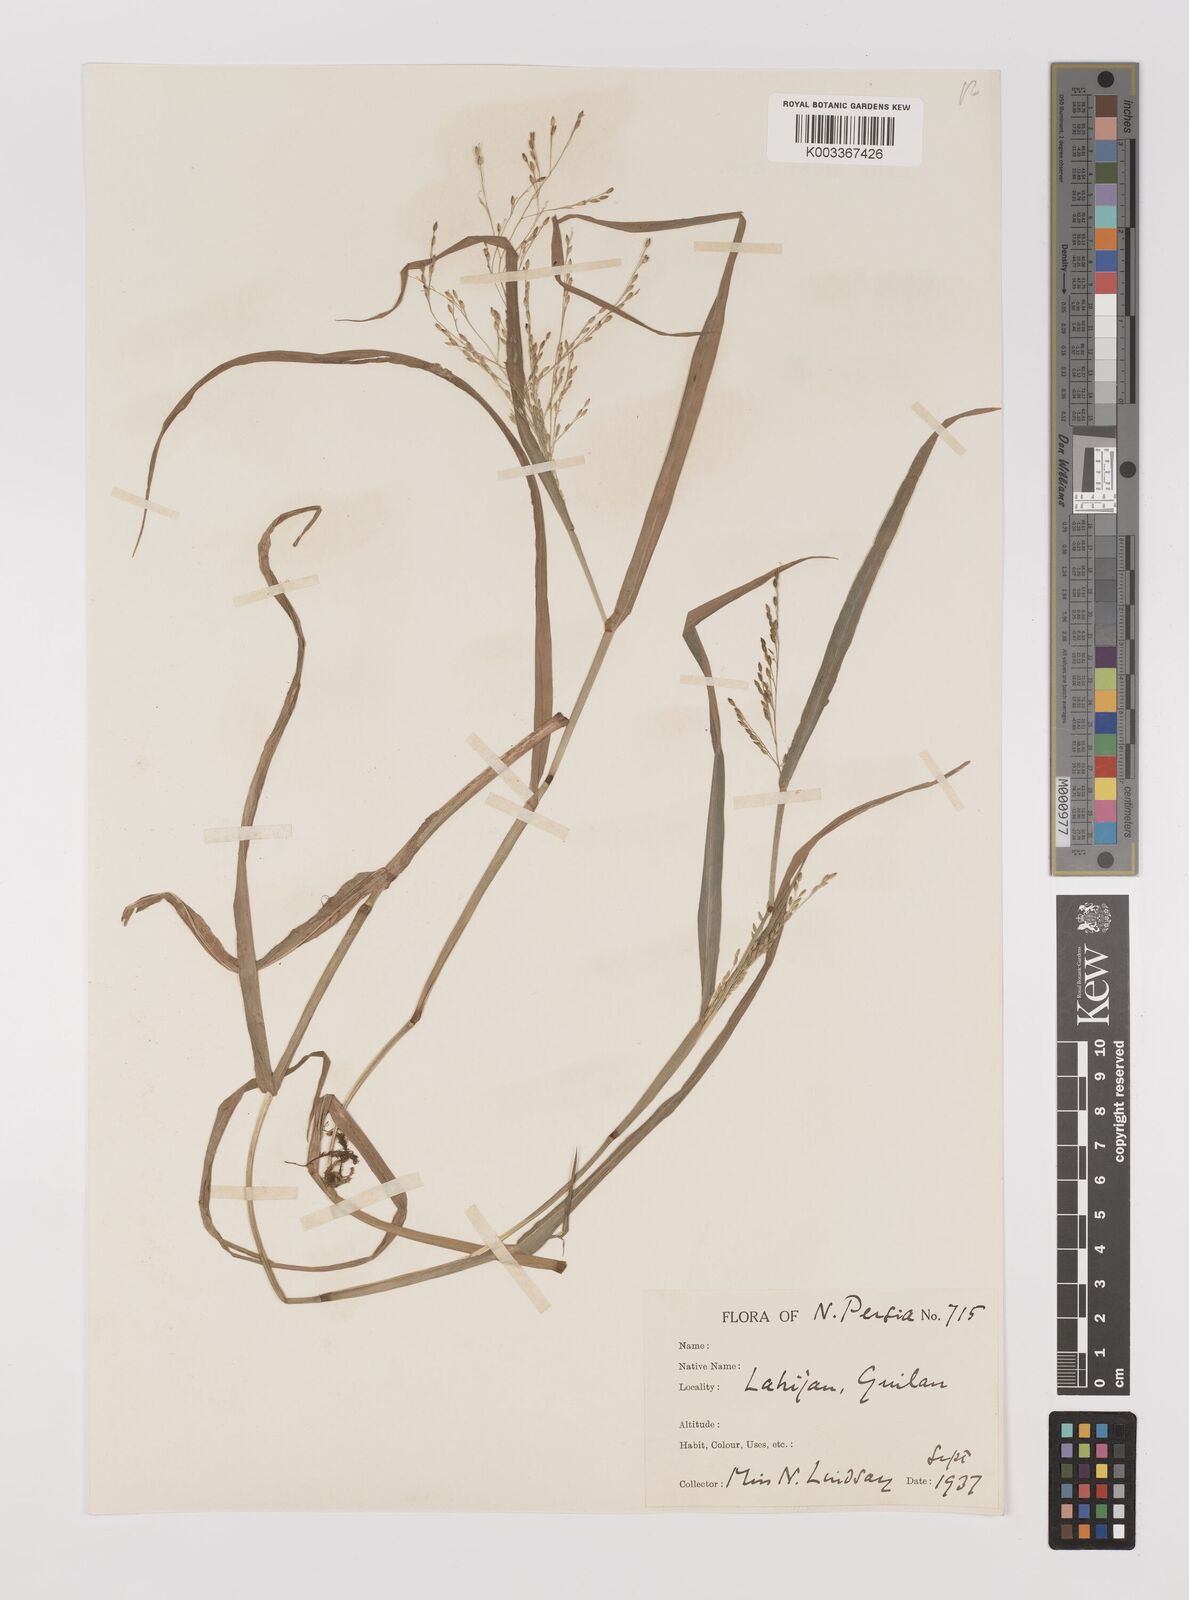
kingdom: Plantae
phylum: Tracheophyta
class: Liliopsida
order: Poales
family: Poaceae
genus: Panicum
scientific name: Panicum
